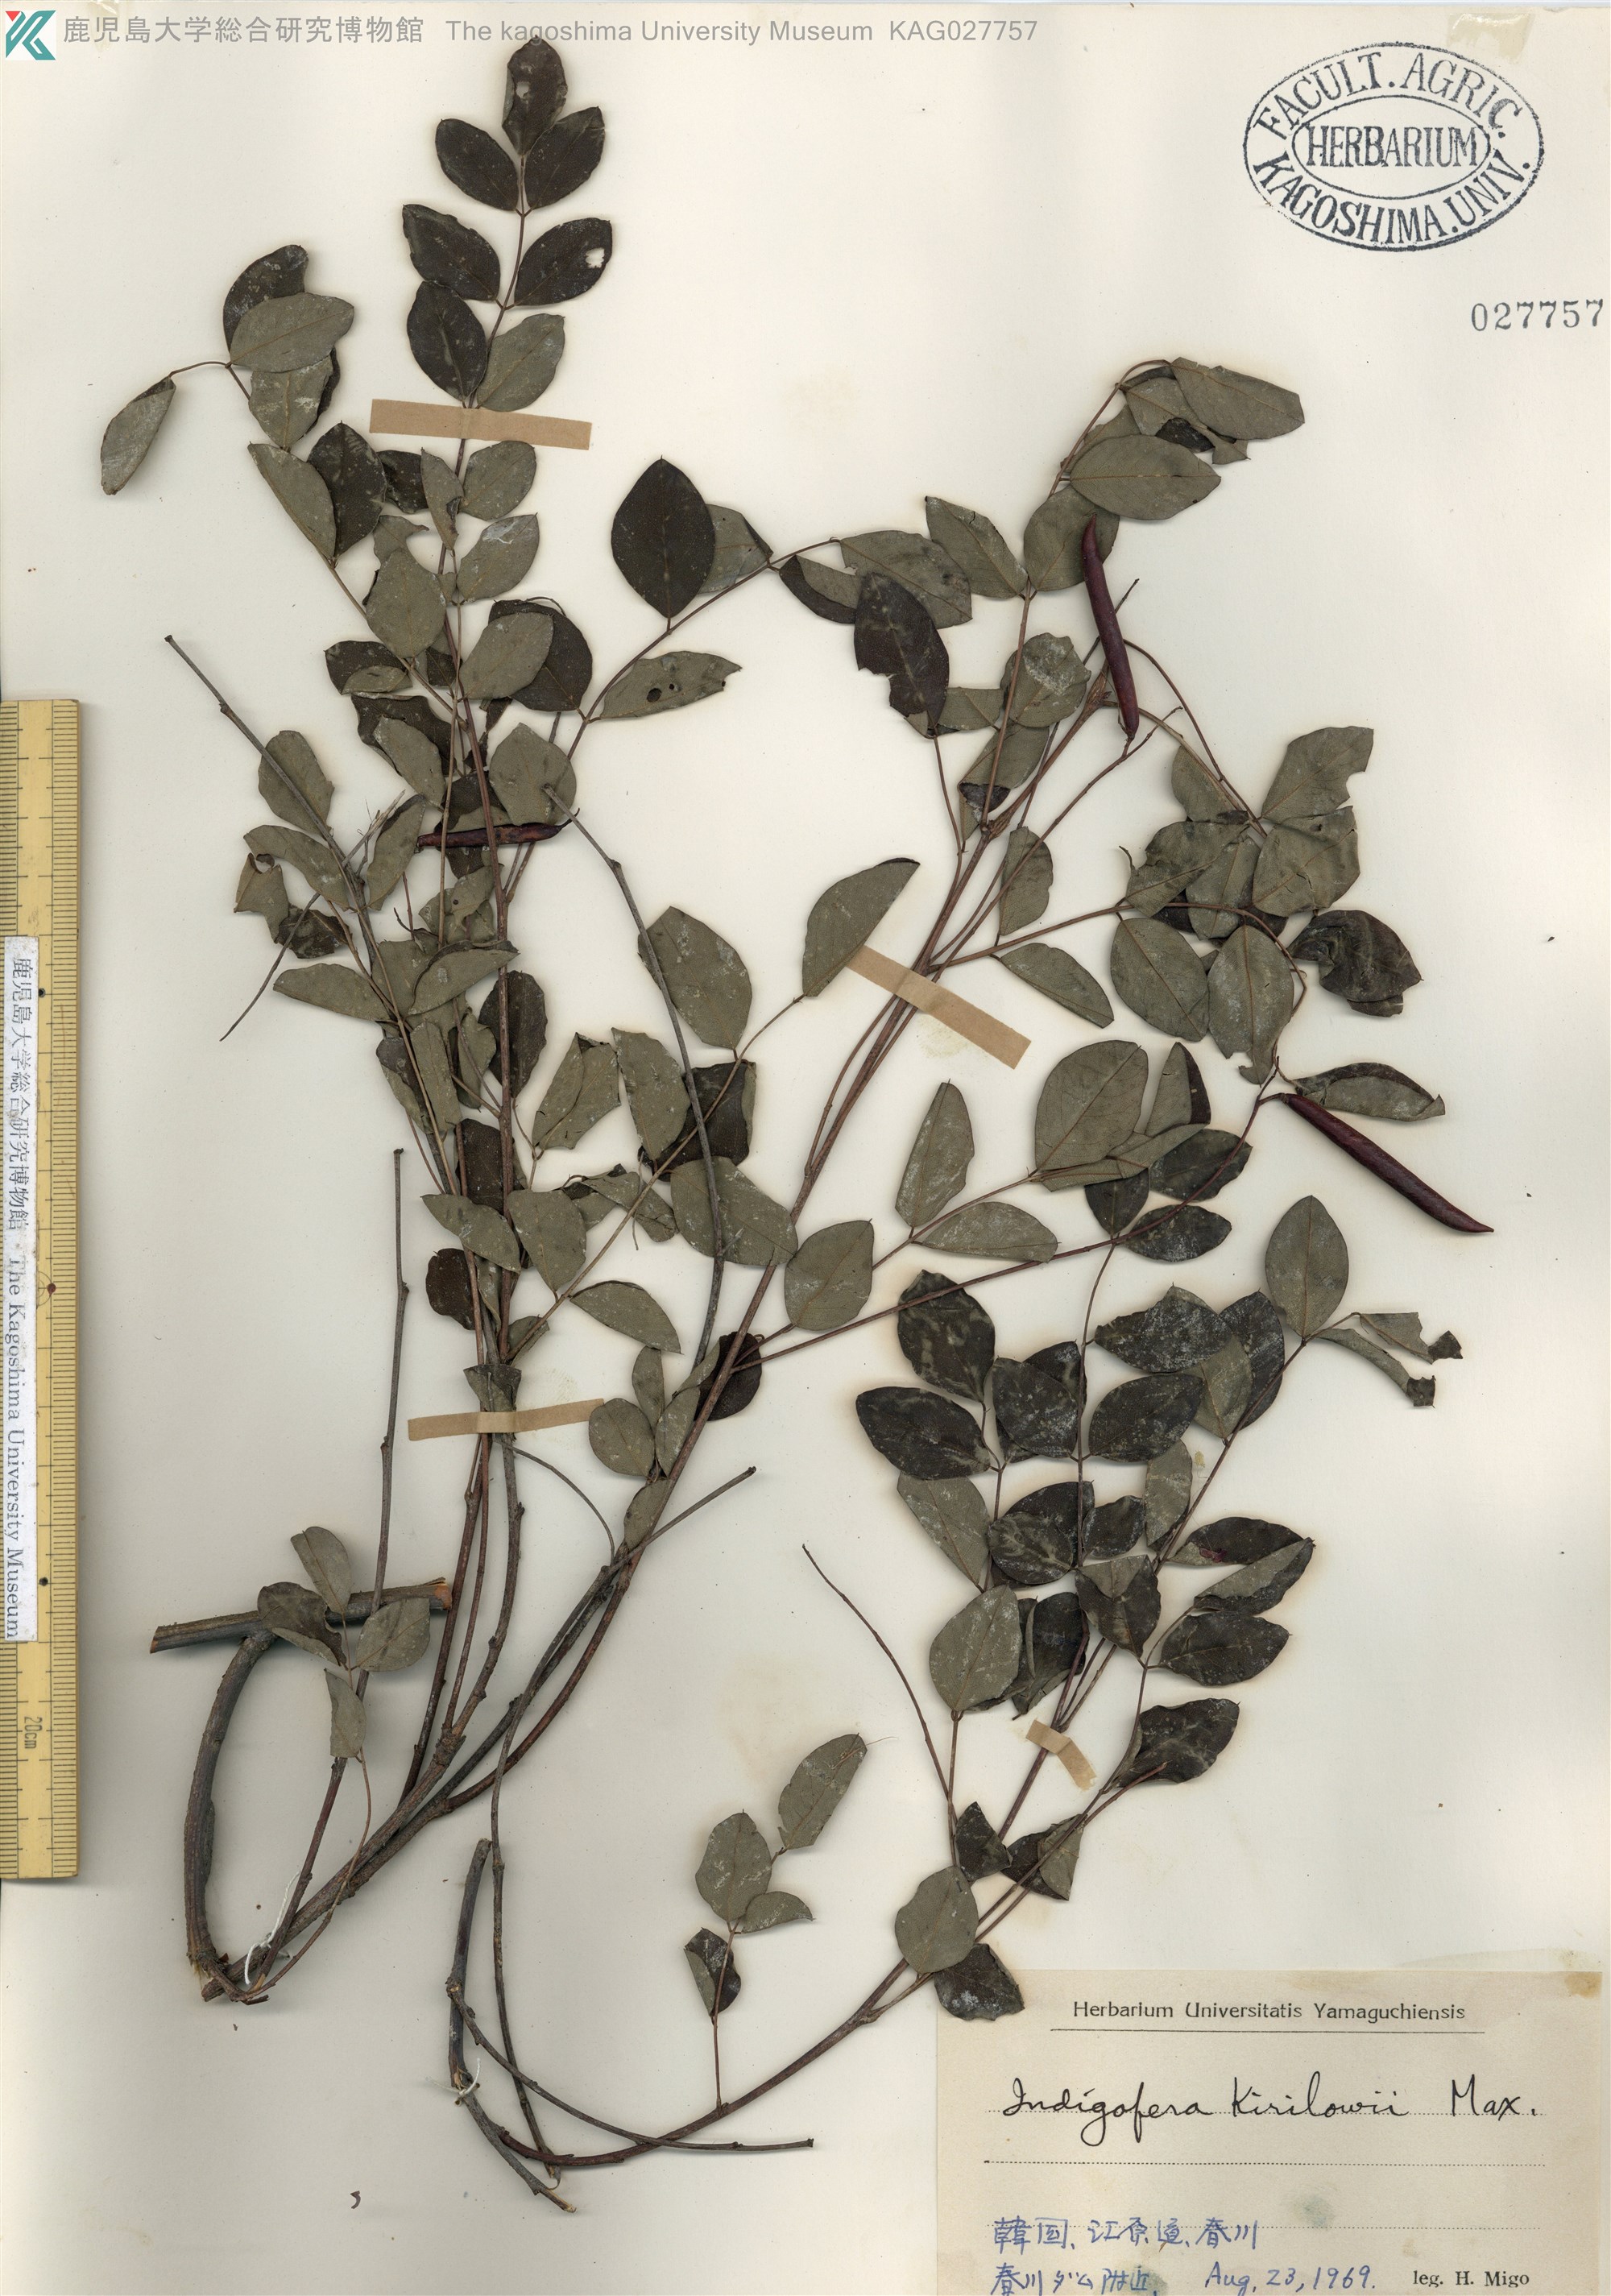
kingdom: Plantae
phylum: Tracheophyta
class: Magnoliopsida
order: Fabales
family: Fabaceae
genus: Indigofera
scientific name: Indigofera kirilowii
